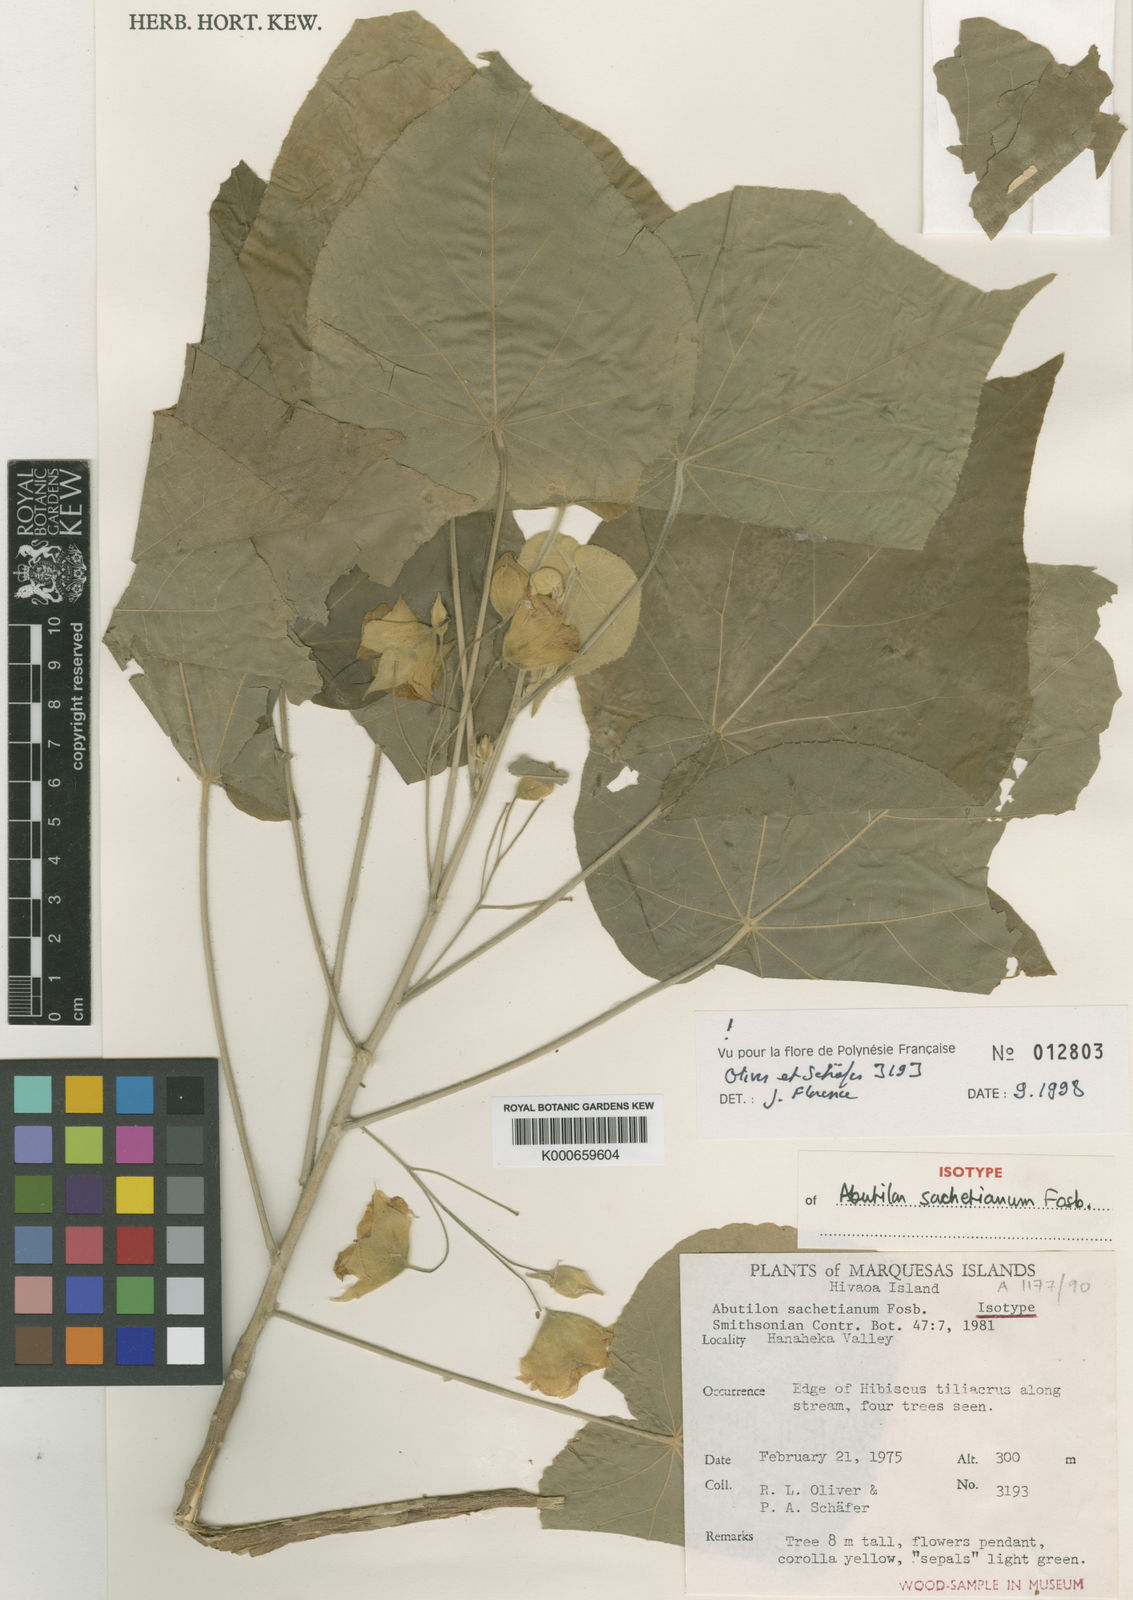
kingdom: Plantae
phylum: Tracheophyta
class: Magnoliopsida
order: Malvales
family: Malvaceae
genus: Abutilon
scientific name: Abutilon sachetianum
